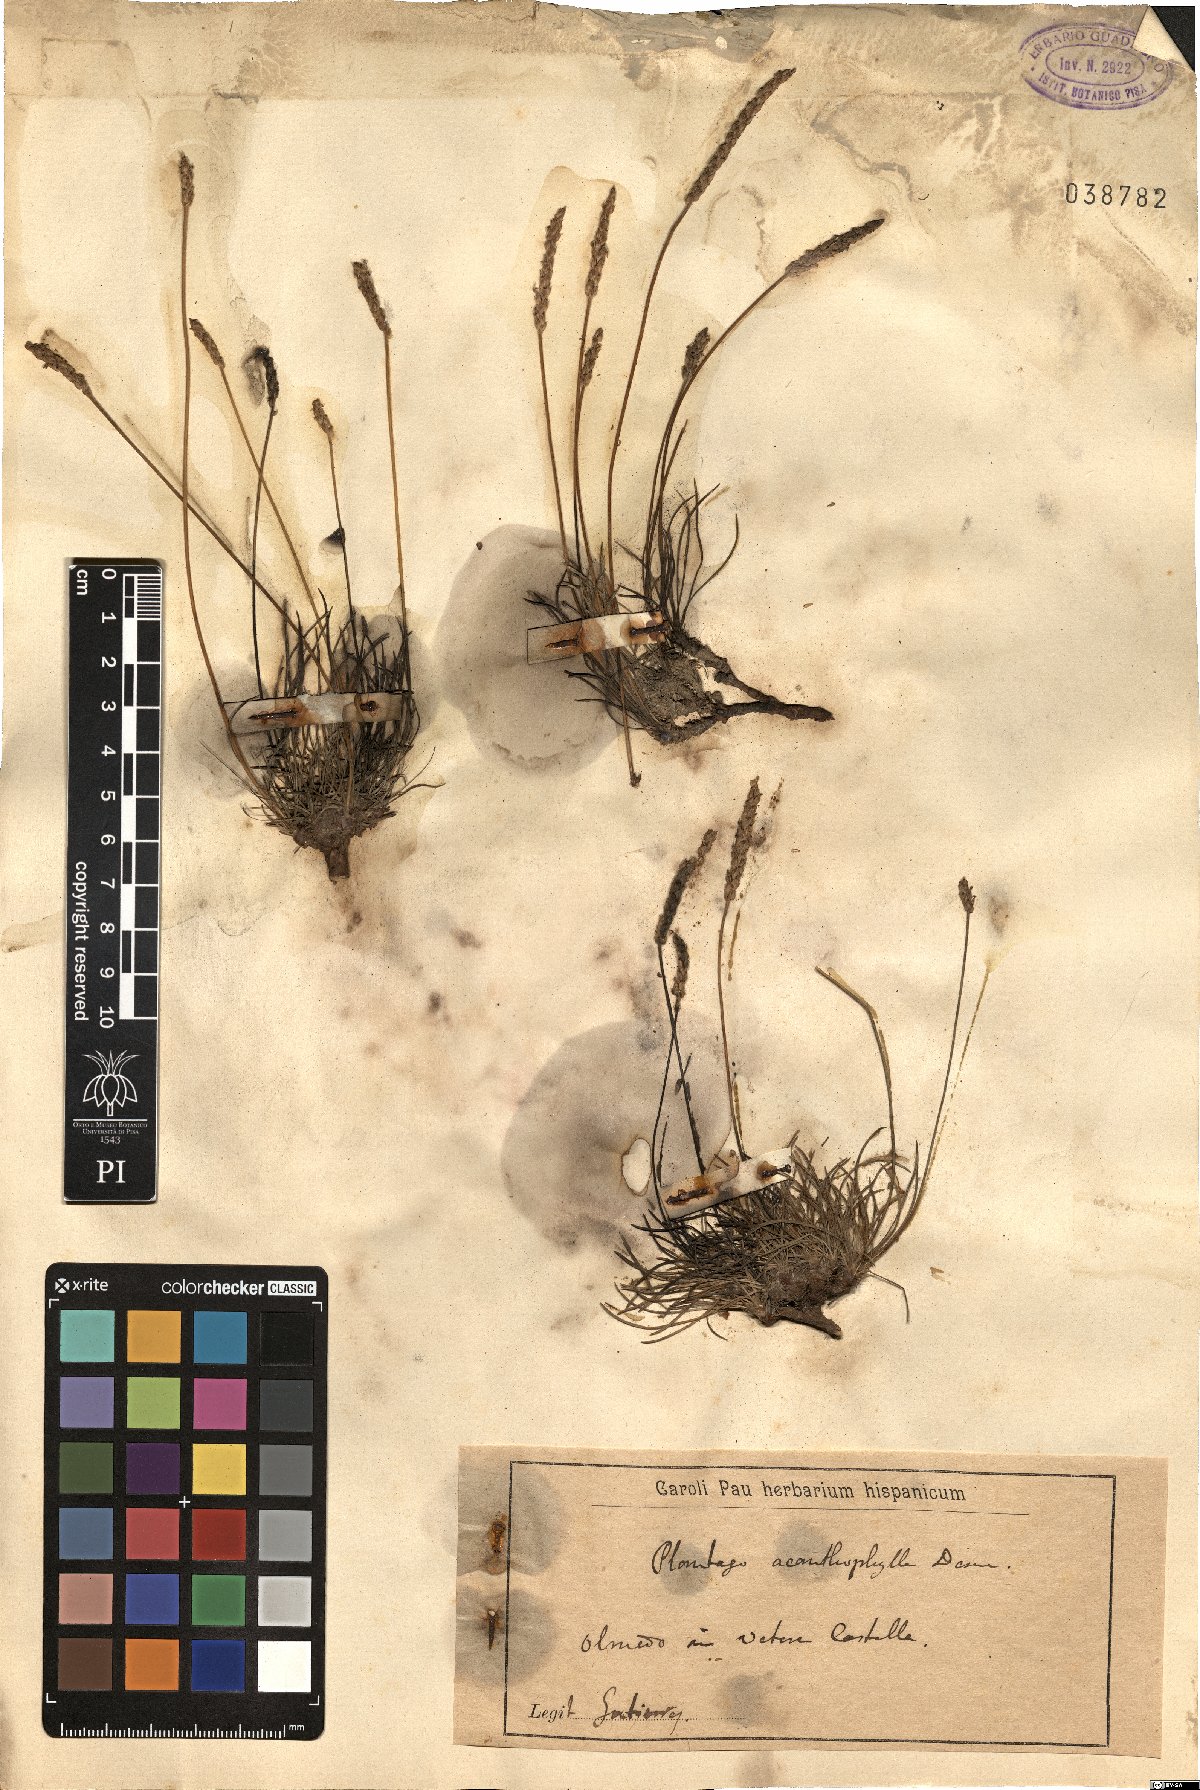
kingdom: Plantae
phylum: Tracheophyta
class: Magnoliopsida
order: Lamiales
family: Plantaginaceae
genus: Plantago
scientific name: Plantago
